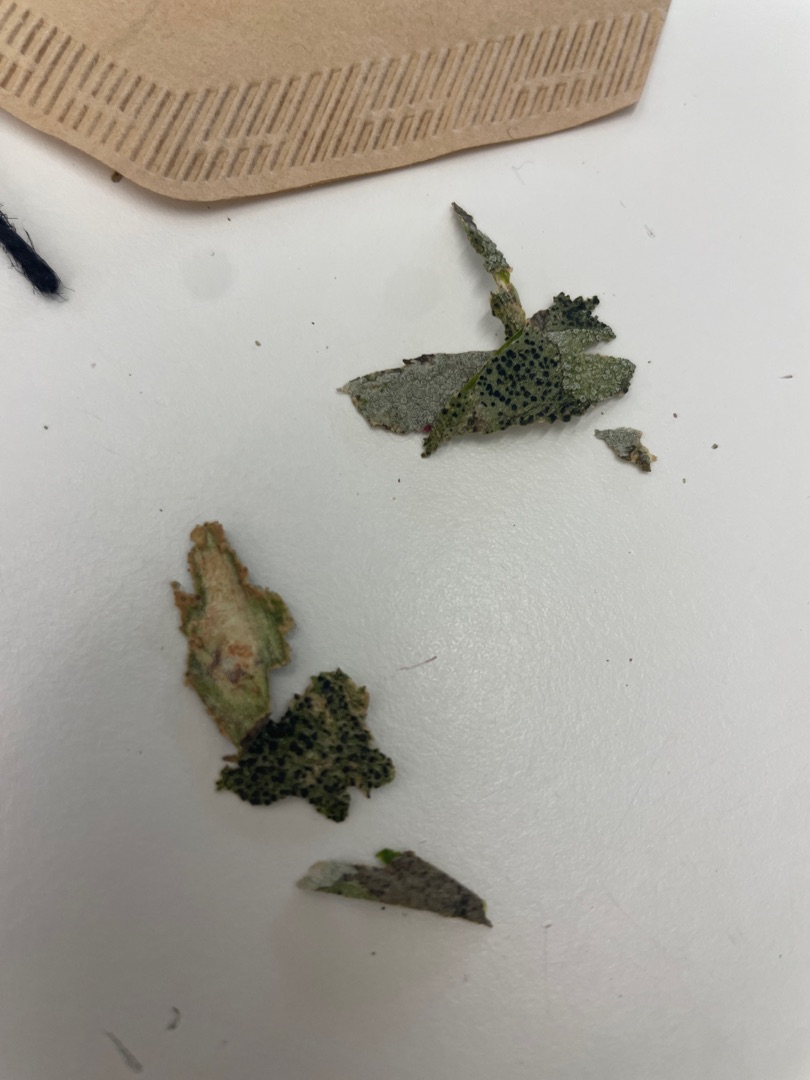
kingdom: Fungi
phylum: Ascomycota
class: Lecanoromycetes
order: Lecanorales
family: Lecanoraceae
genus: Lecidella
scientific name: Lecidella elaeochroma
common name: Grågrøn skivelav
